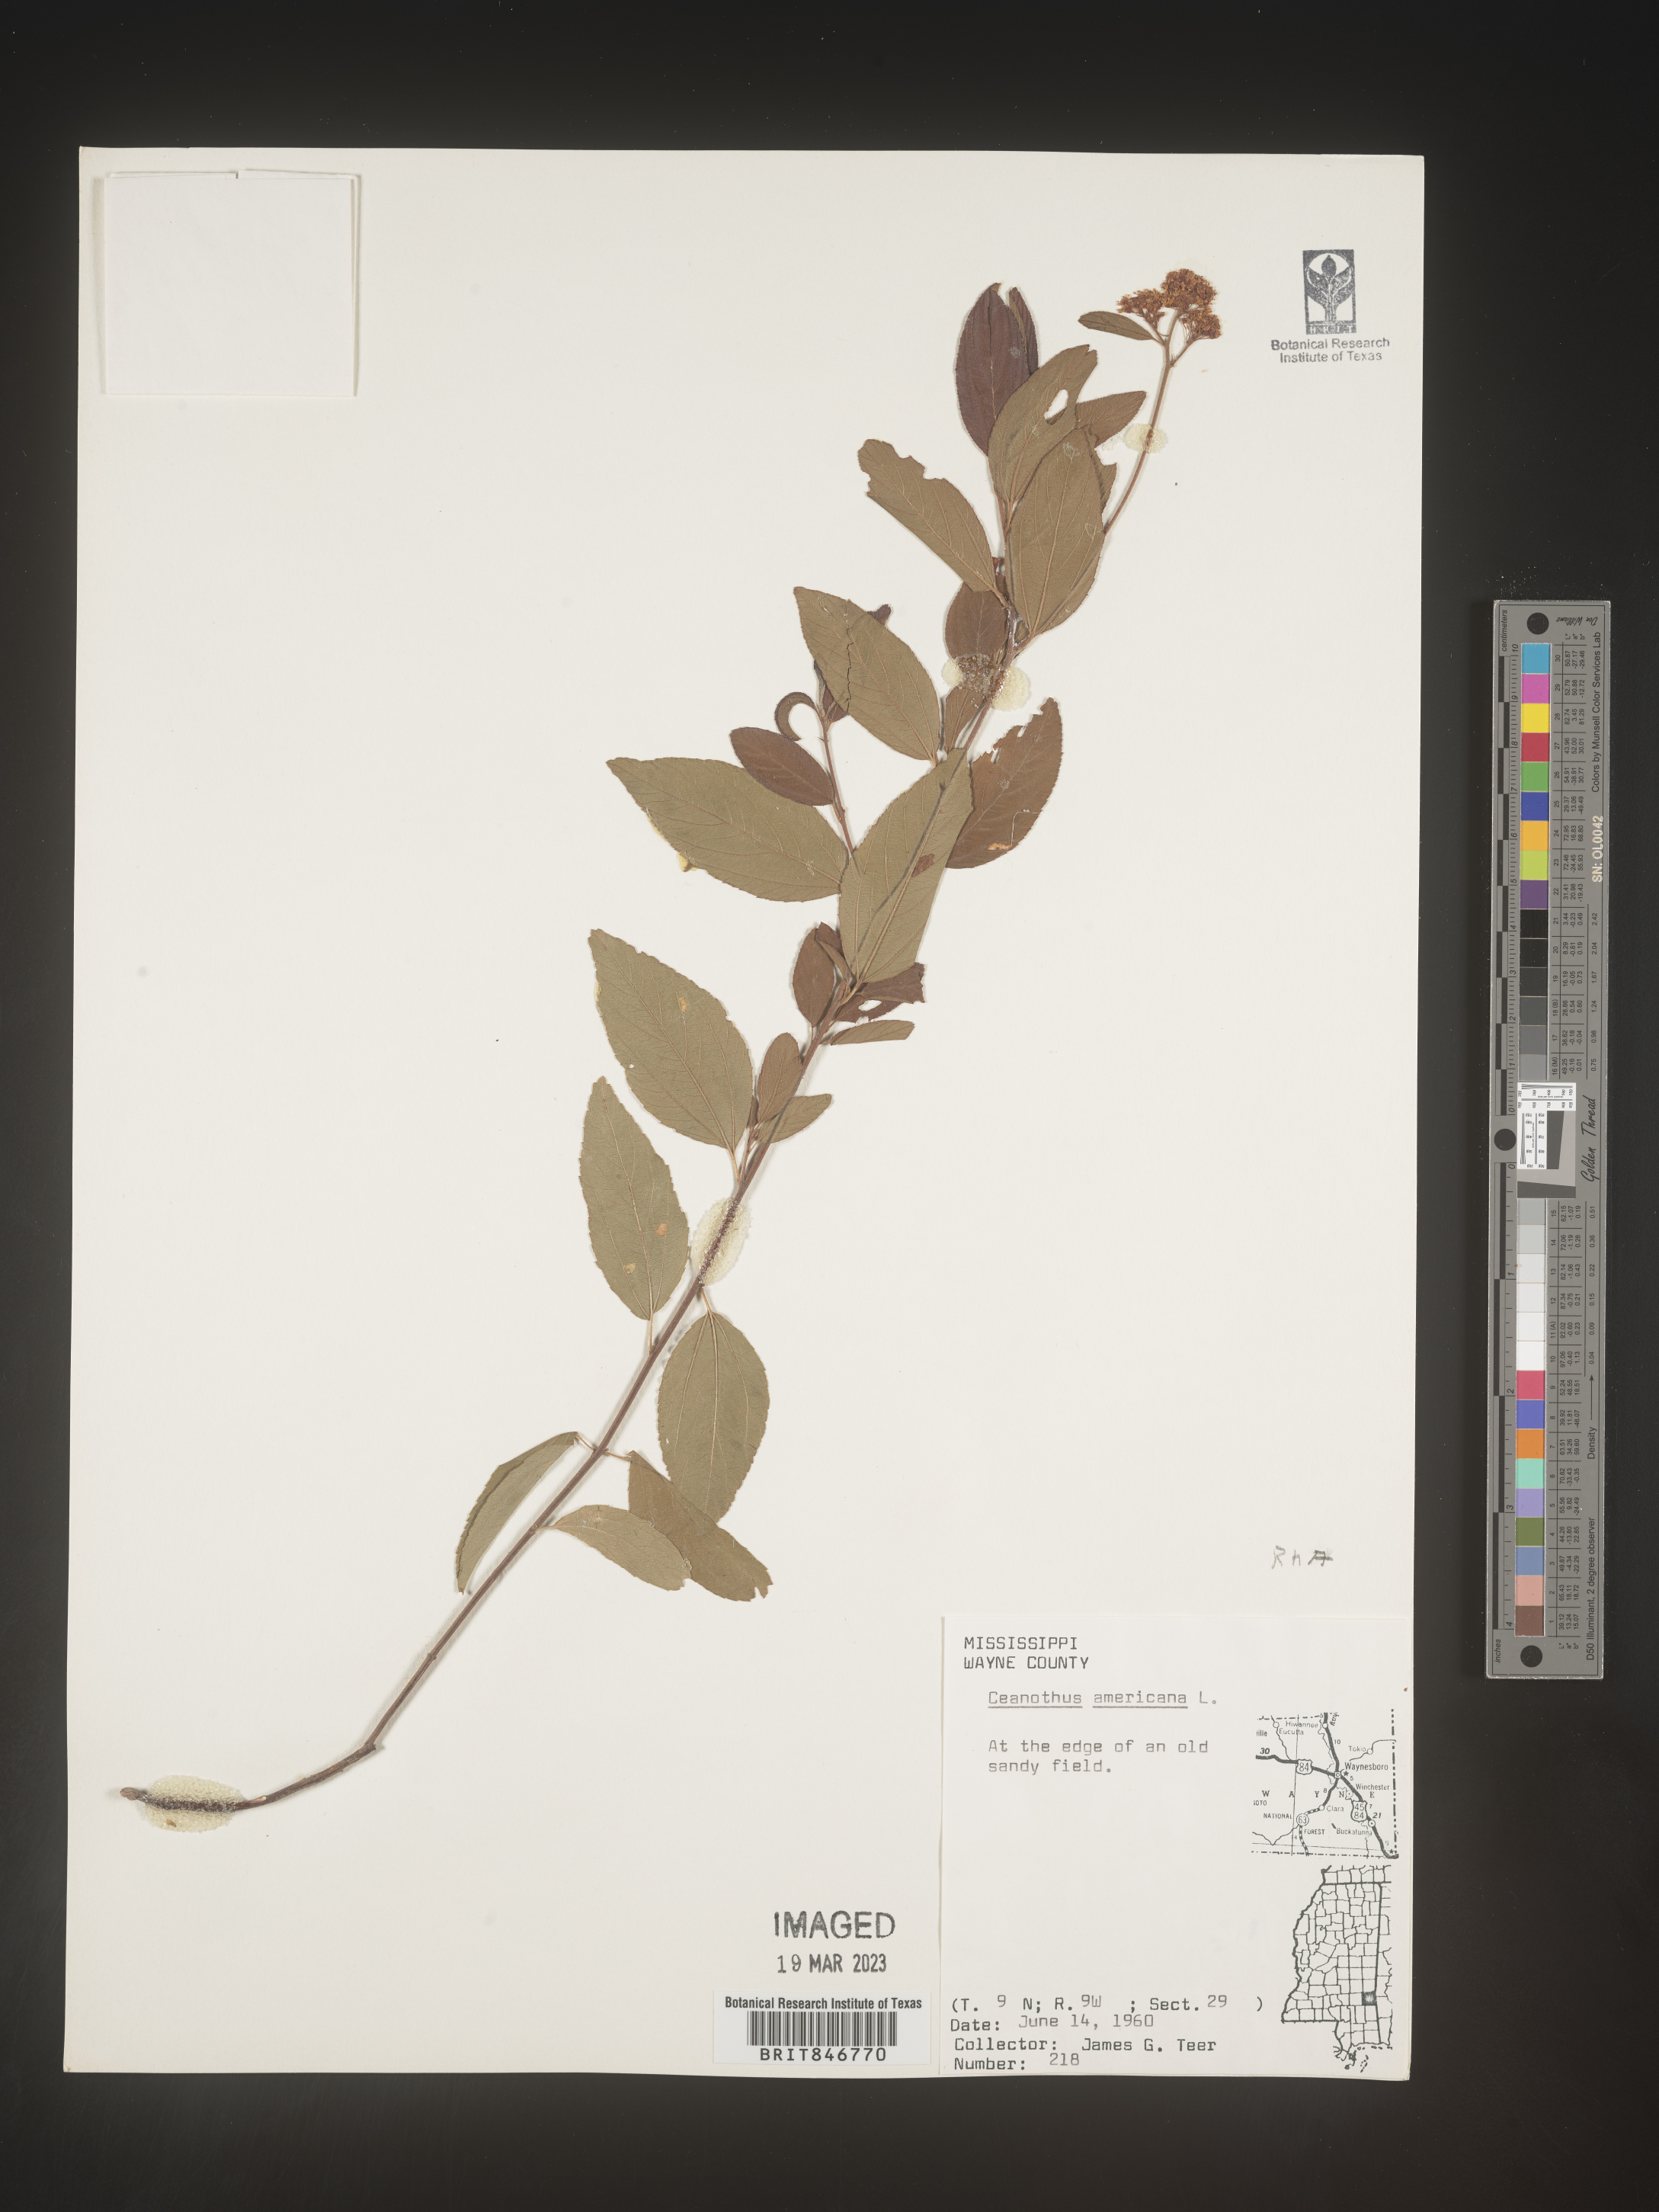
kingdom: Plantae
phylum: Tracheophyta
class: Magnoliopsida
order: Rosales
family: Rhamnaceae
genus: Ceanothus
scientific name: Ceanothus americanus
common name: Redroot
